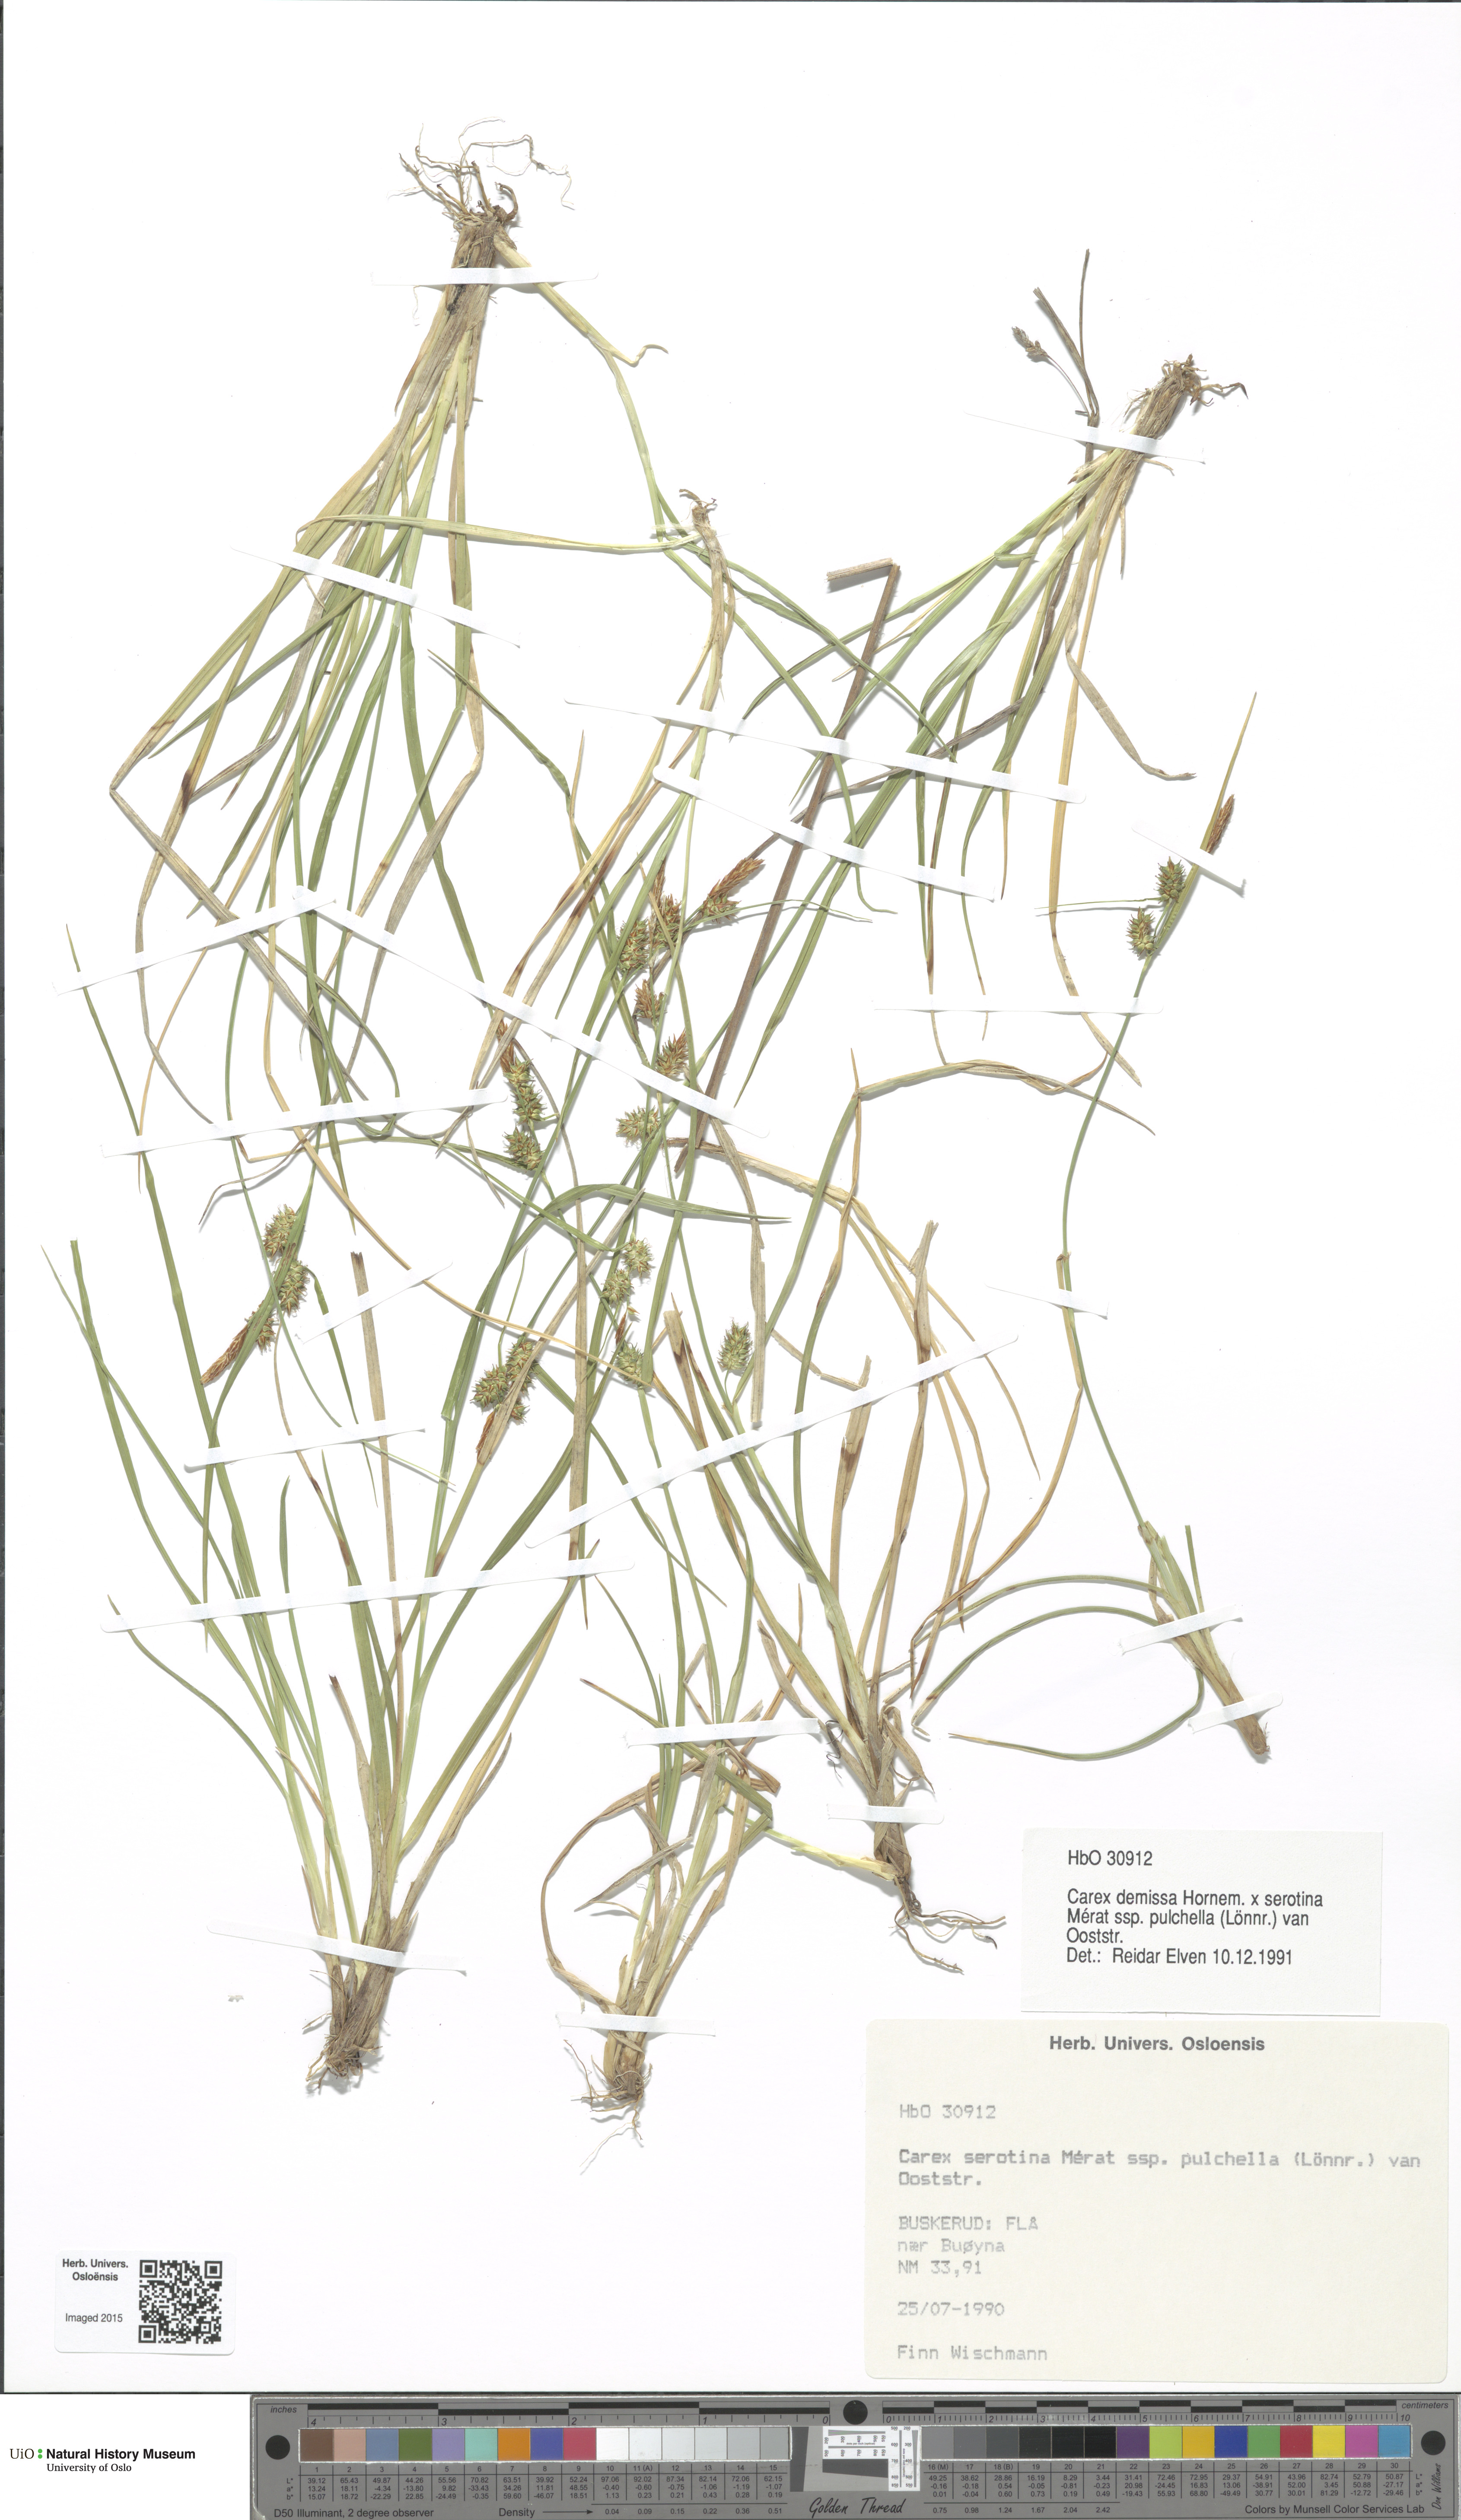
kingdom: Plantae
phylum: Tracheophyta
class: Liliopsida
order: Poales
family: Cyperaceae
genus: Carex
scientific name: Carex
